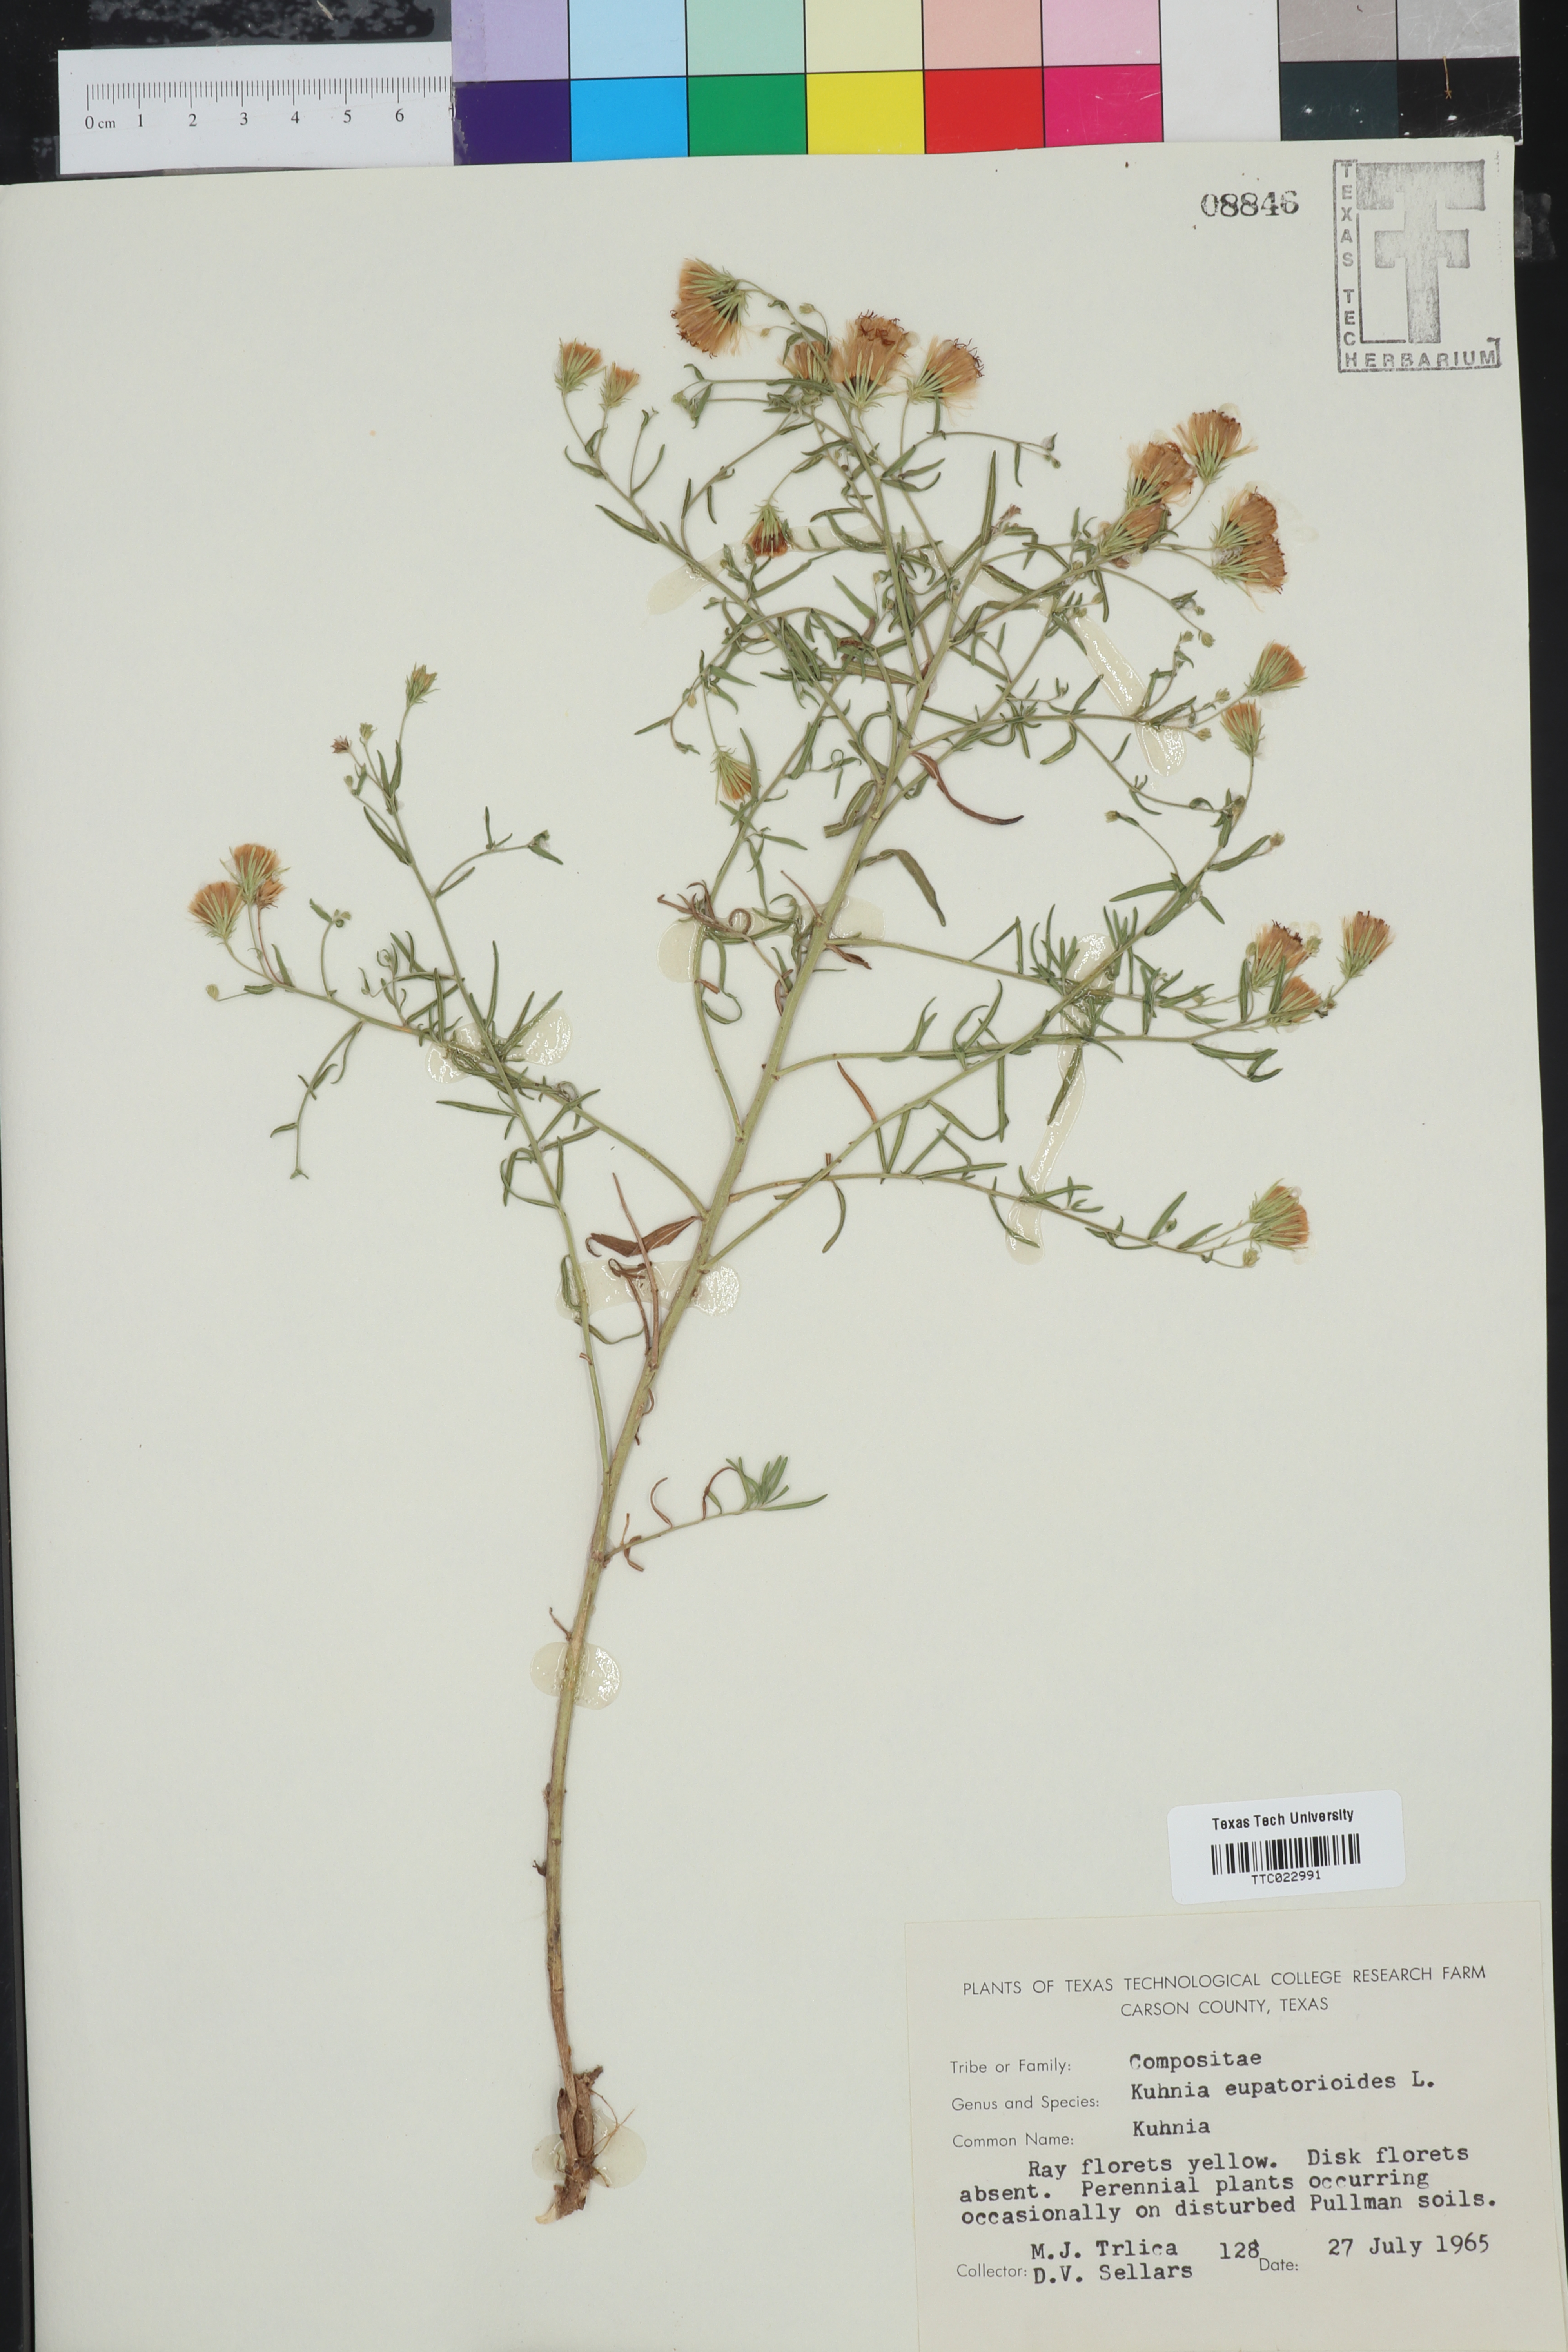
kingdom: Plantae
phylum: Tracheophyta
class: Magnoliopsida
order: Asterales
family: Asteraceae
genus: Brickellia
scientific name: Brickellia eupatorioides
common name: False boneset
